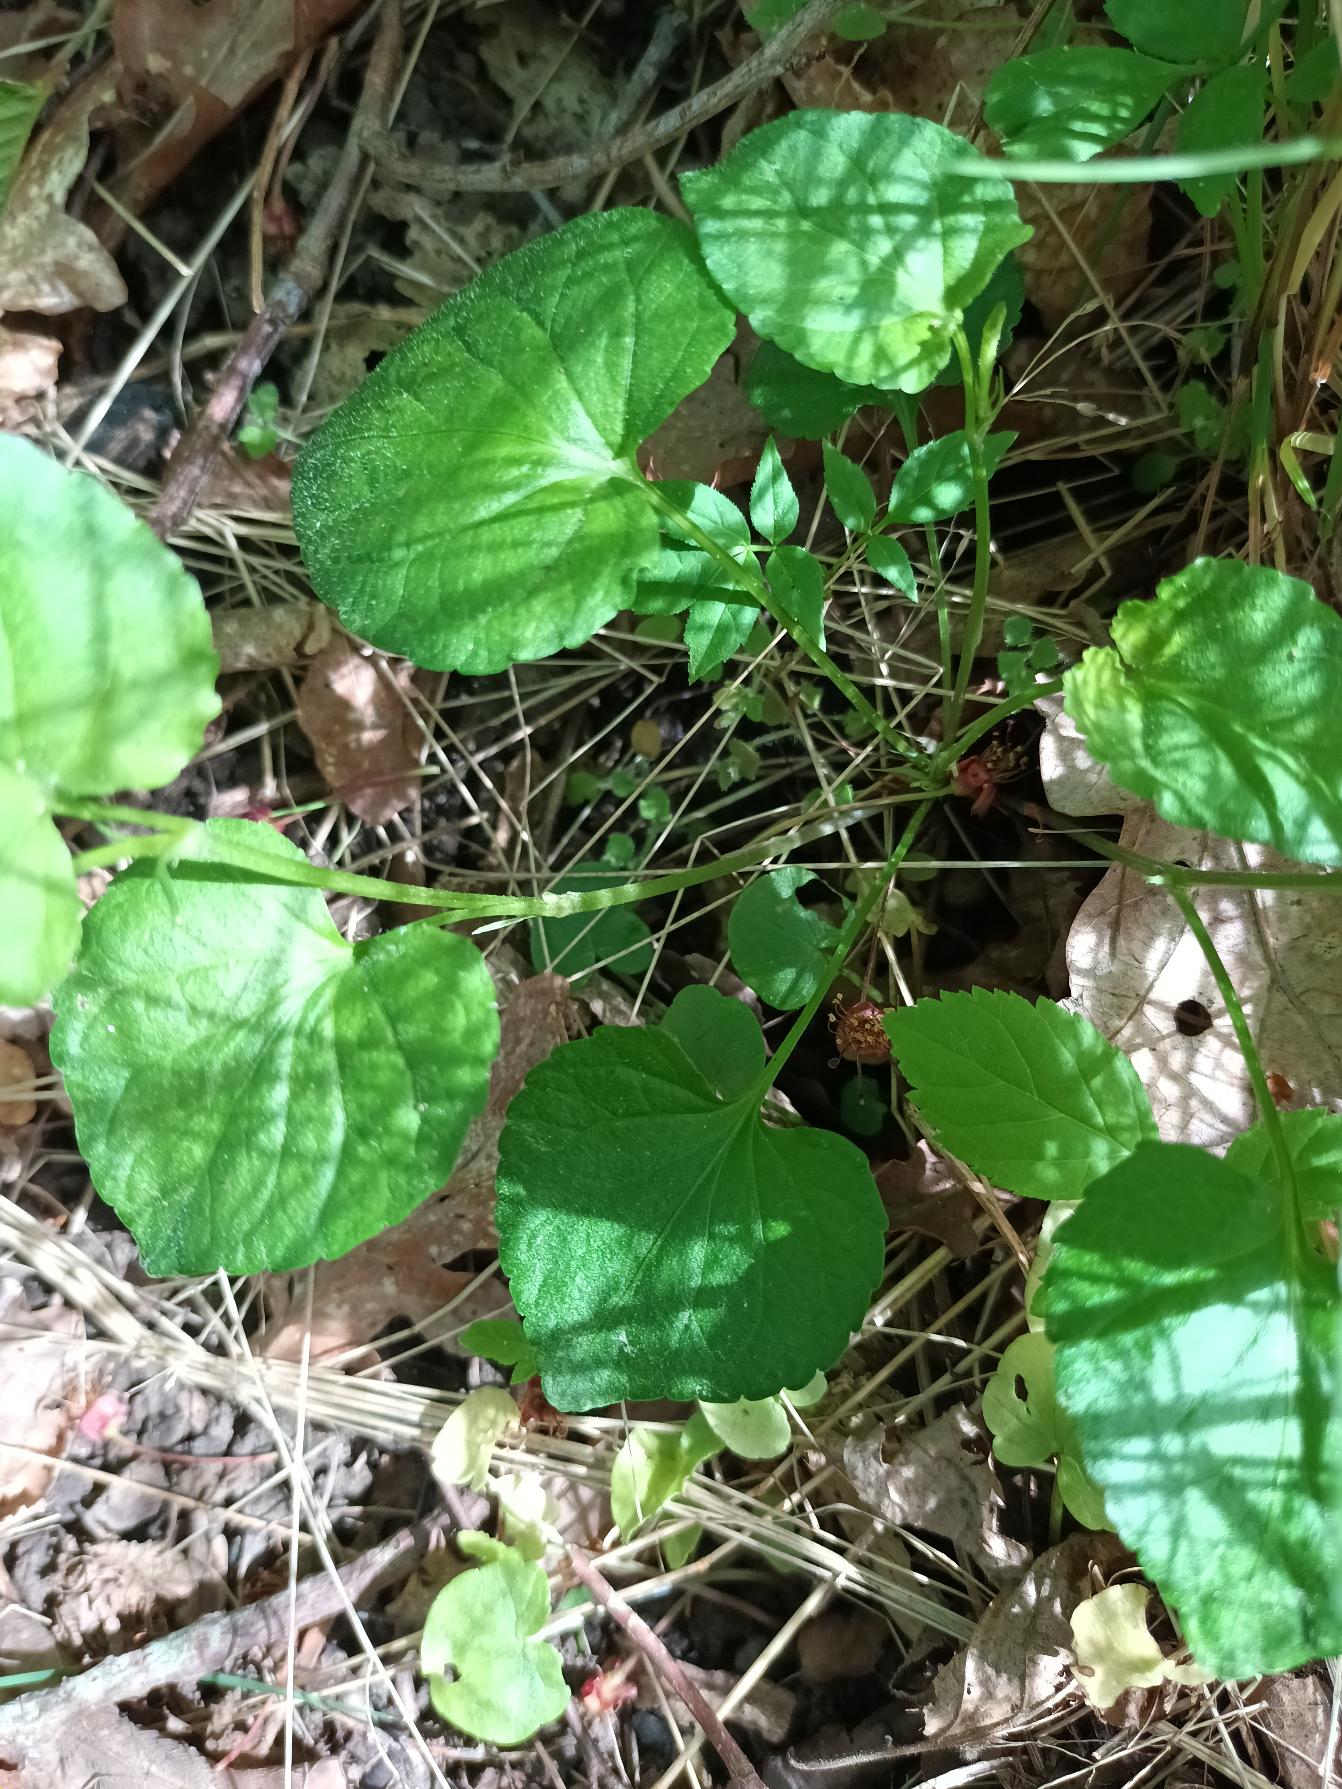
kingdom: Plantae
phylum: Tracheophyta
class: Magnoliopsida
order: Malpighiales
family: Violaceae
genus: Viola
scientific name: Viola riviniana
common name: Krat-viol
